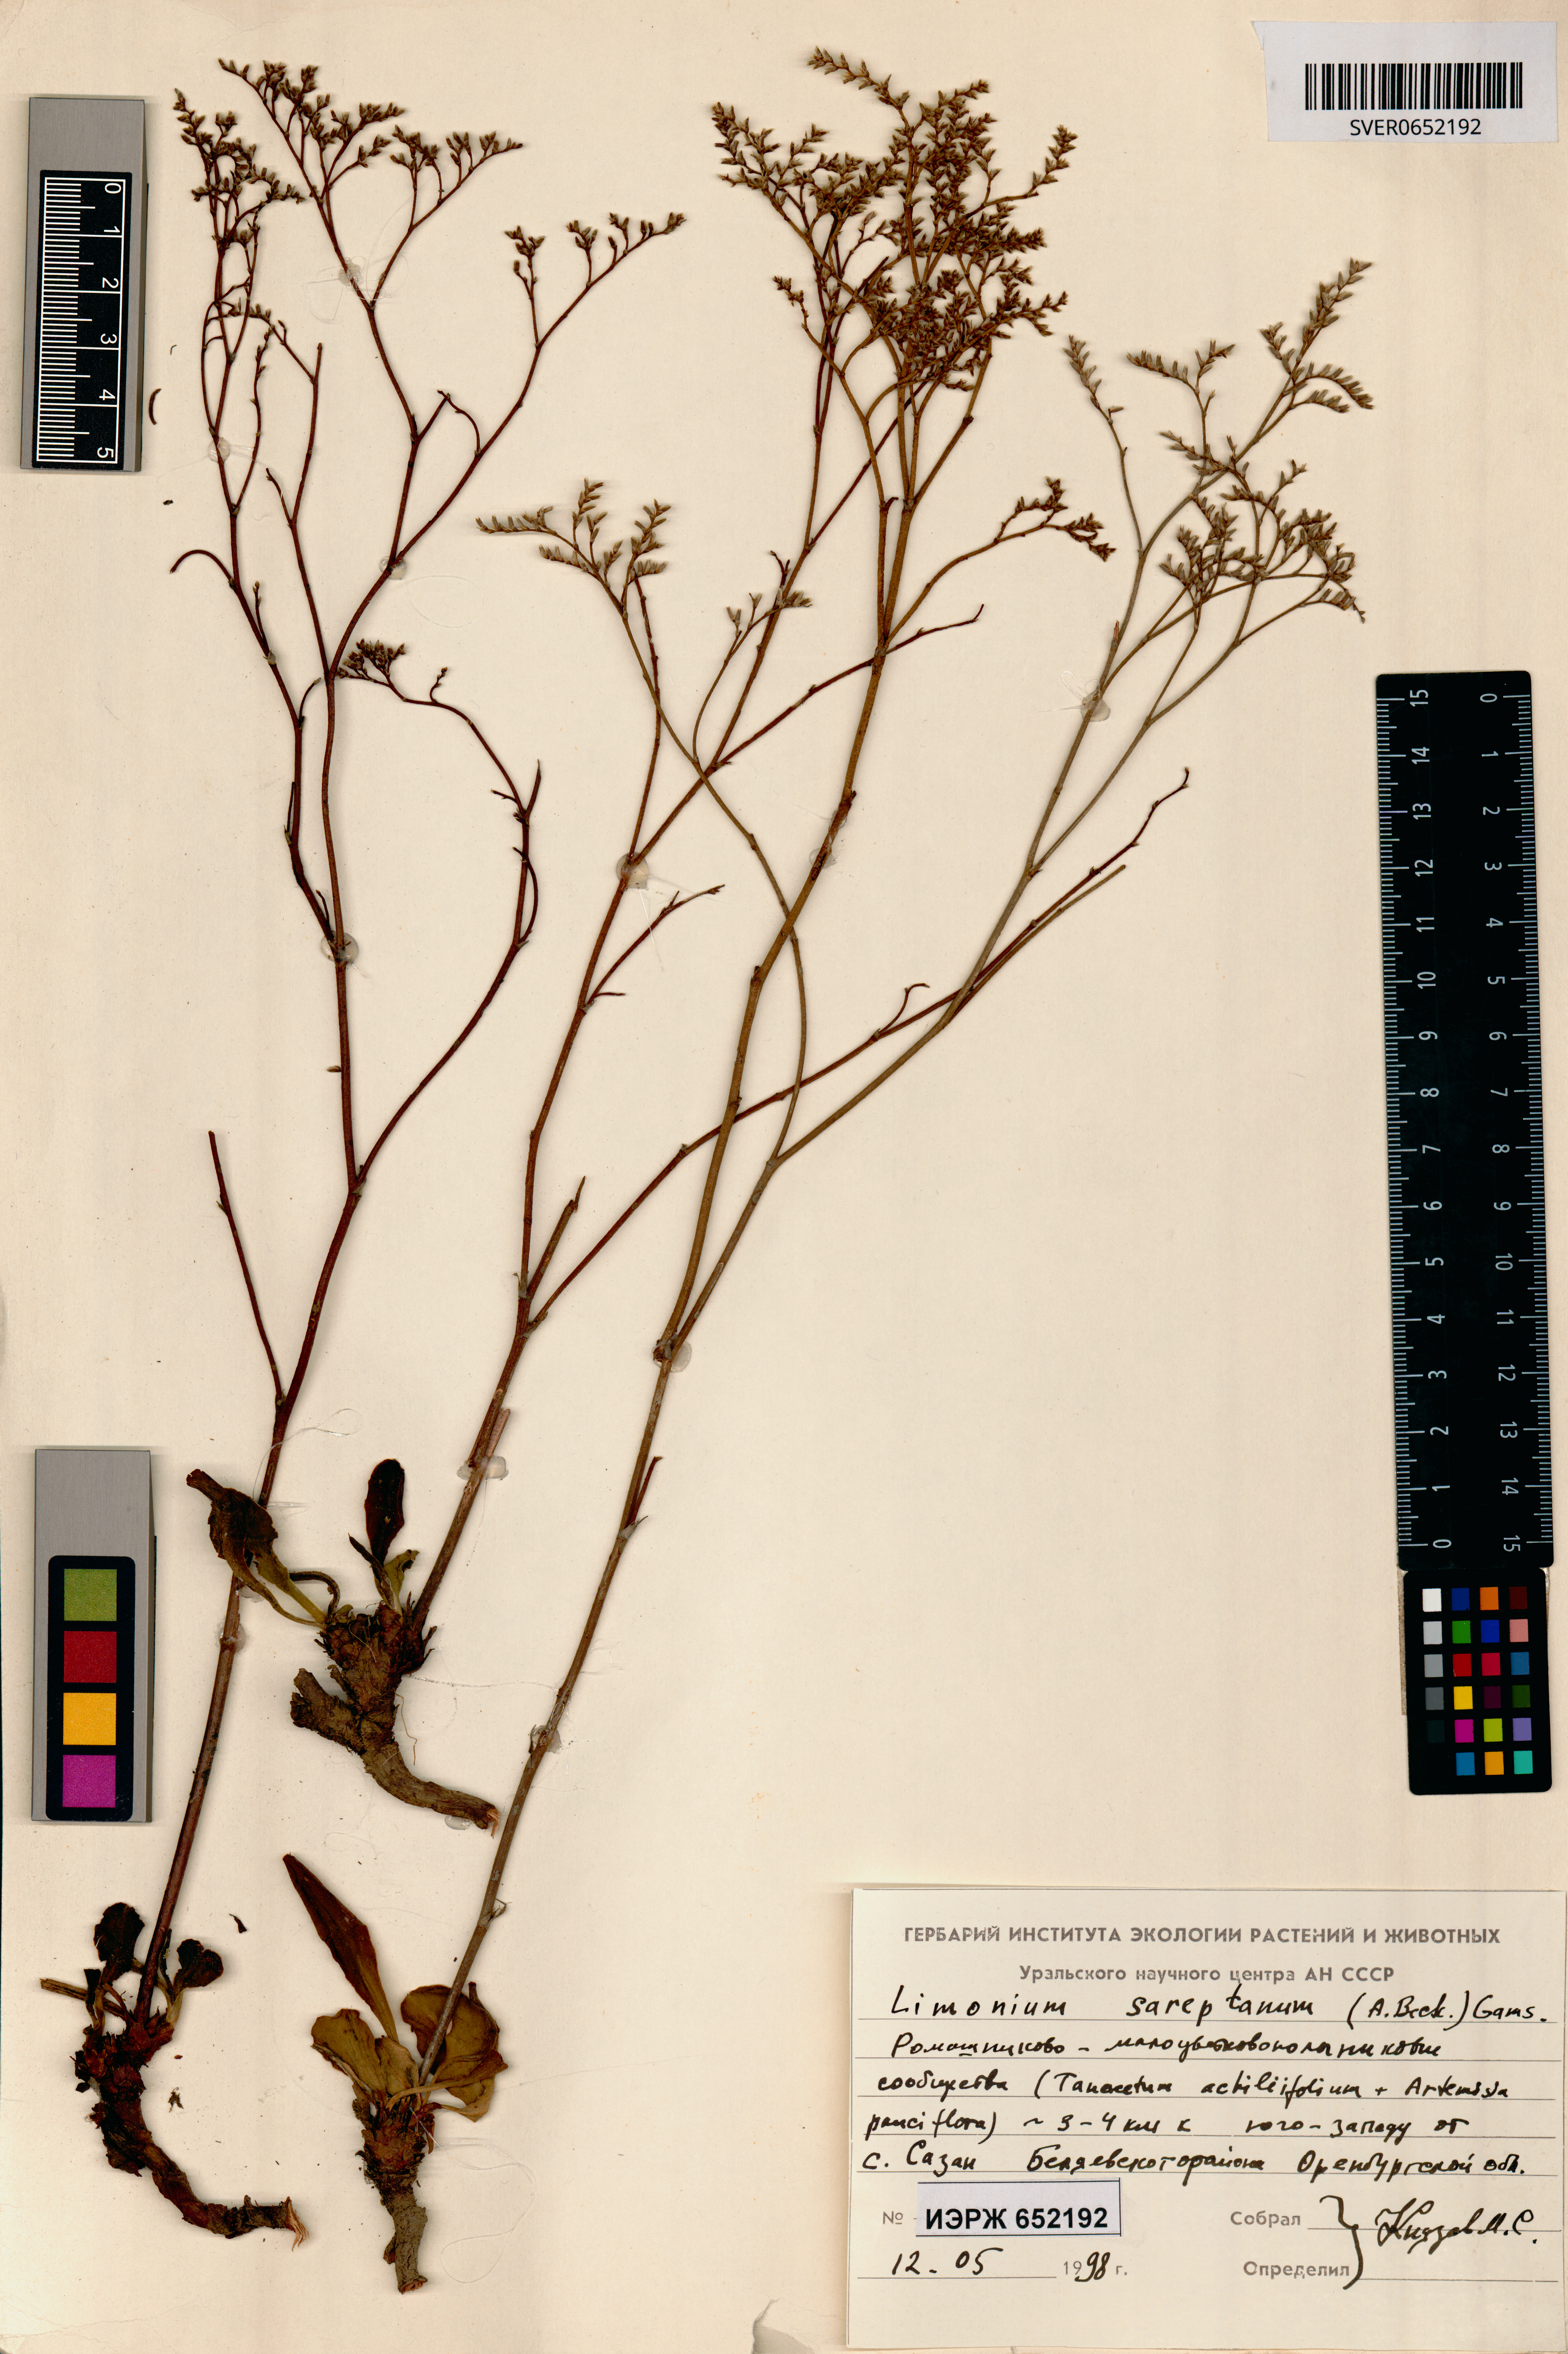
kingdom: Plantae
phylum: Tracheophyta
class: Magnoliopsida
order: Caryophyllales
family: Plumbaginaceae
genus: Limonium
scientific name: Limonium sareptanum
